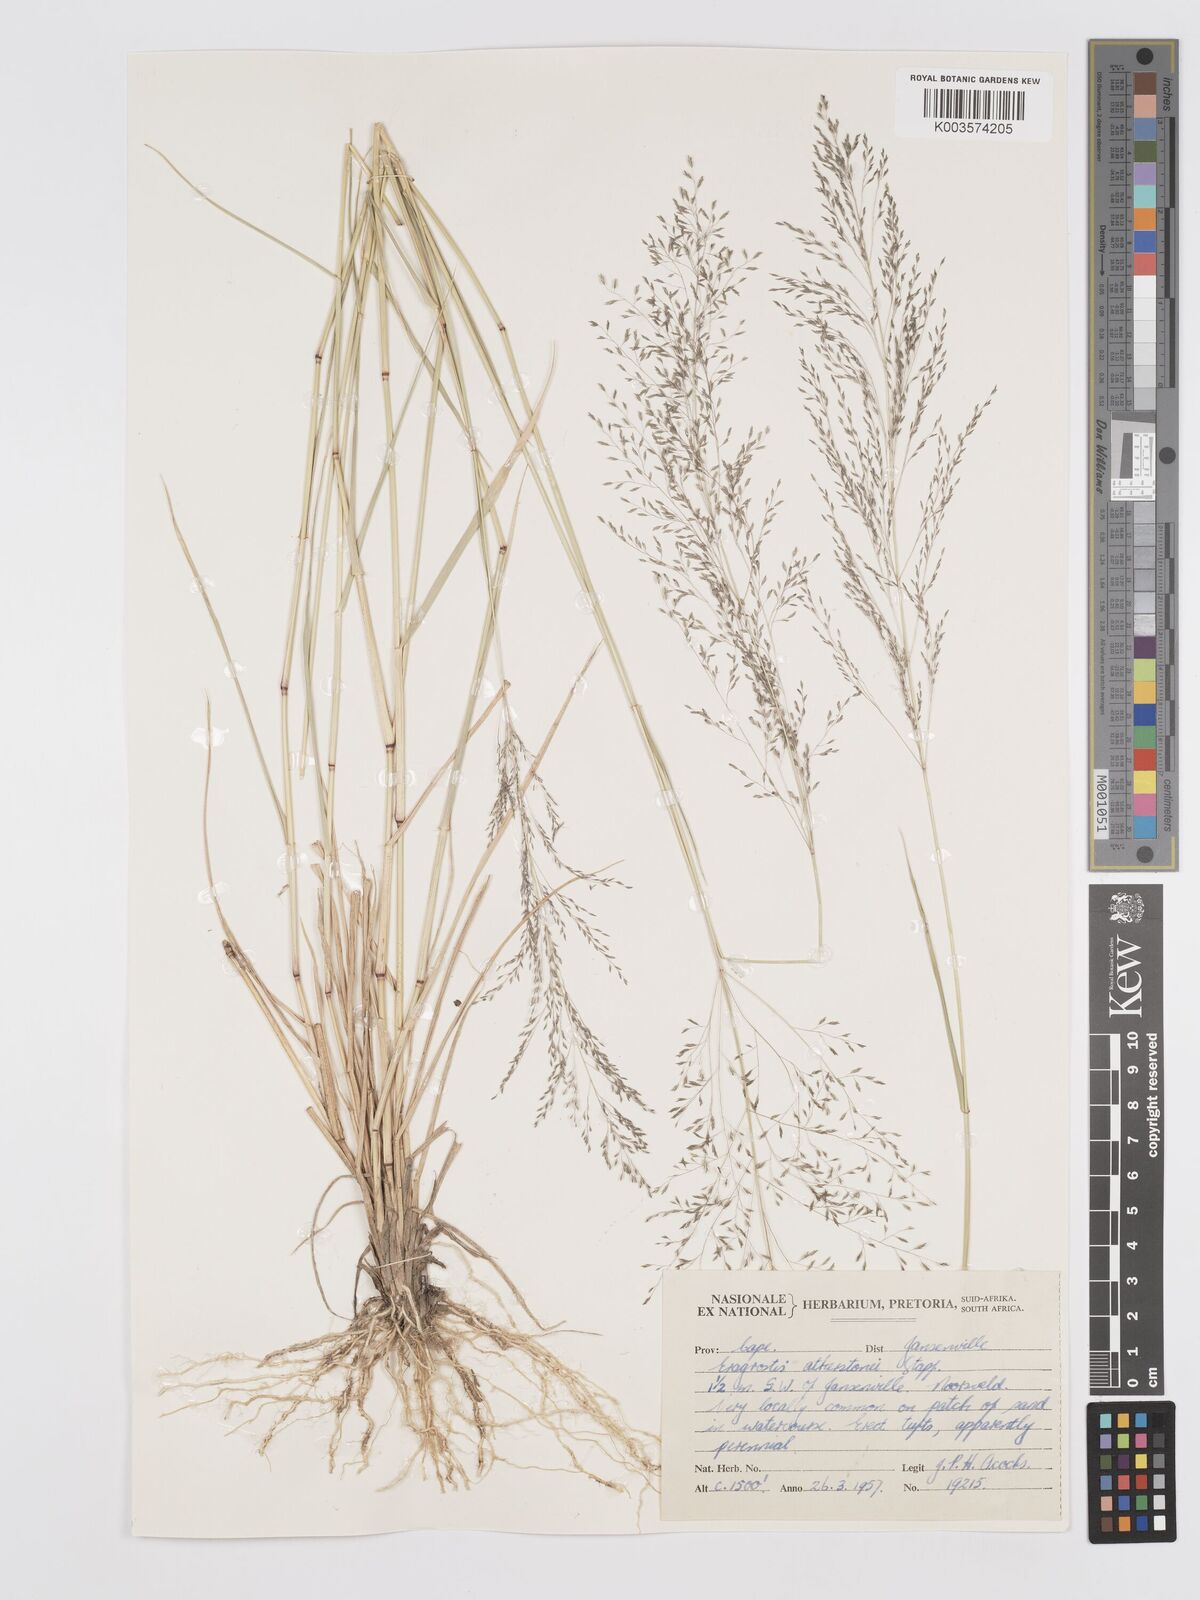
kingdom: Plantae
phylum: Tracheophyta
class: Liliopsida
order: Poales
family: Poaceae
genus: Eragrostis
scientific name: Eragrostis cylindriflora
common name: Cylinderflower lovegrass
